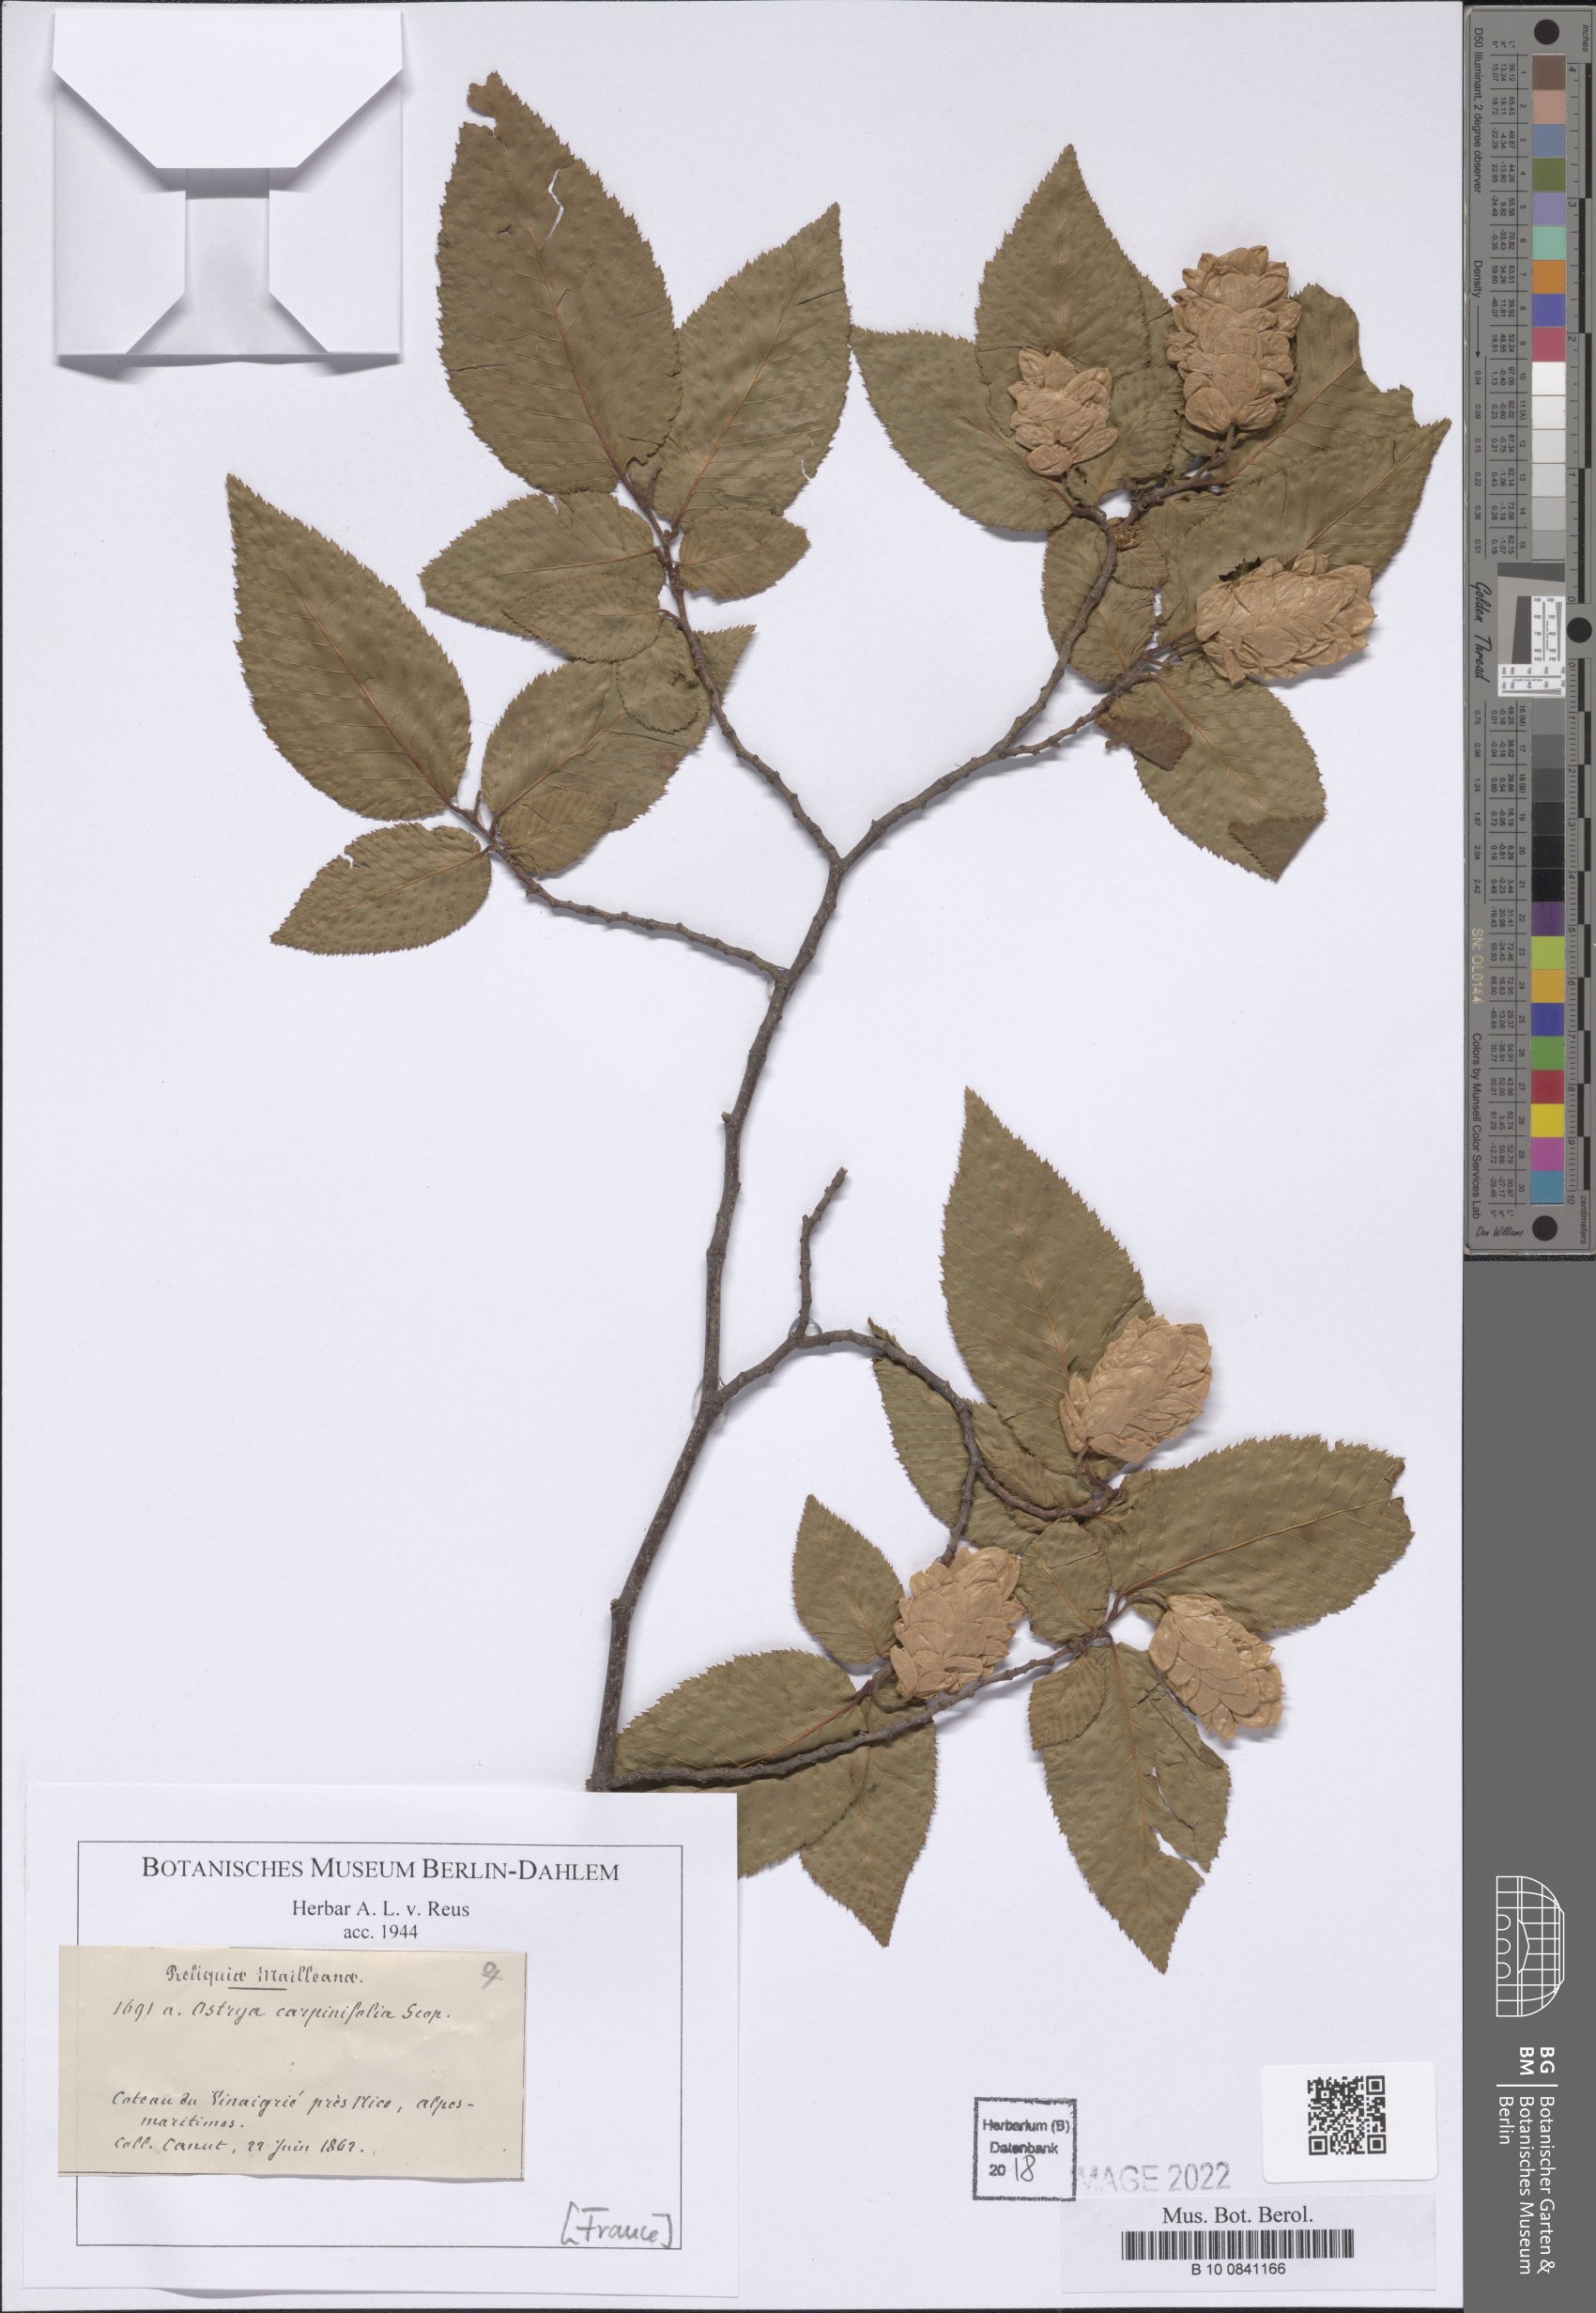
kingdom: Plantae
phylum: Tracheophyta
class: Magnoliopsida
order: Fagales
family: Betulaceae
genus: Ostrya
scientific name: Ostrya carpinifolia
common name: European hop-hornbeam
